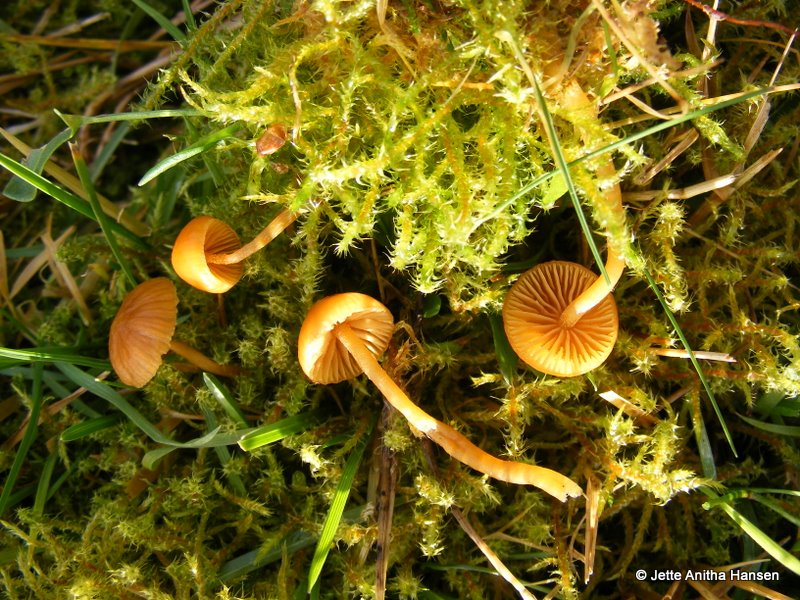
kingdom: Fungi
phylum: Basidiomycota
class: Agaricomycetes
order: Agaricales
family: Hymenogastraceae
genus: Galerina
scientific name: Galerina pumila
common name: honninggul hjelmhat
